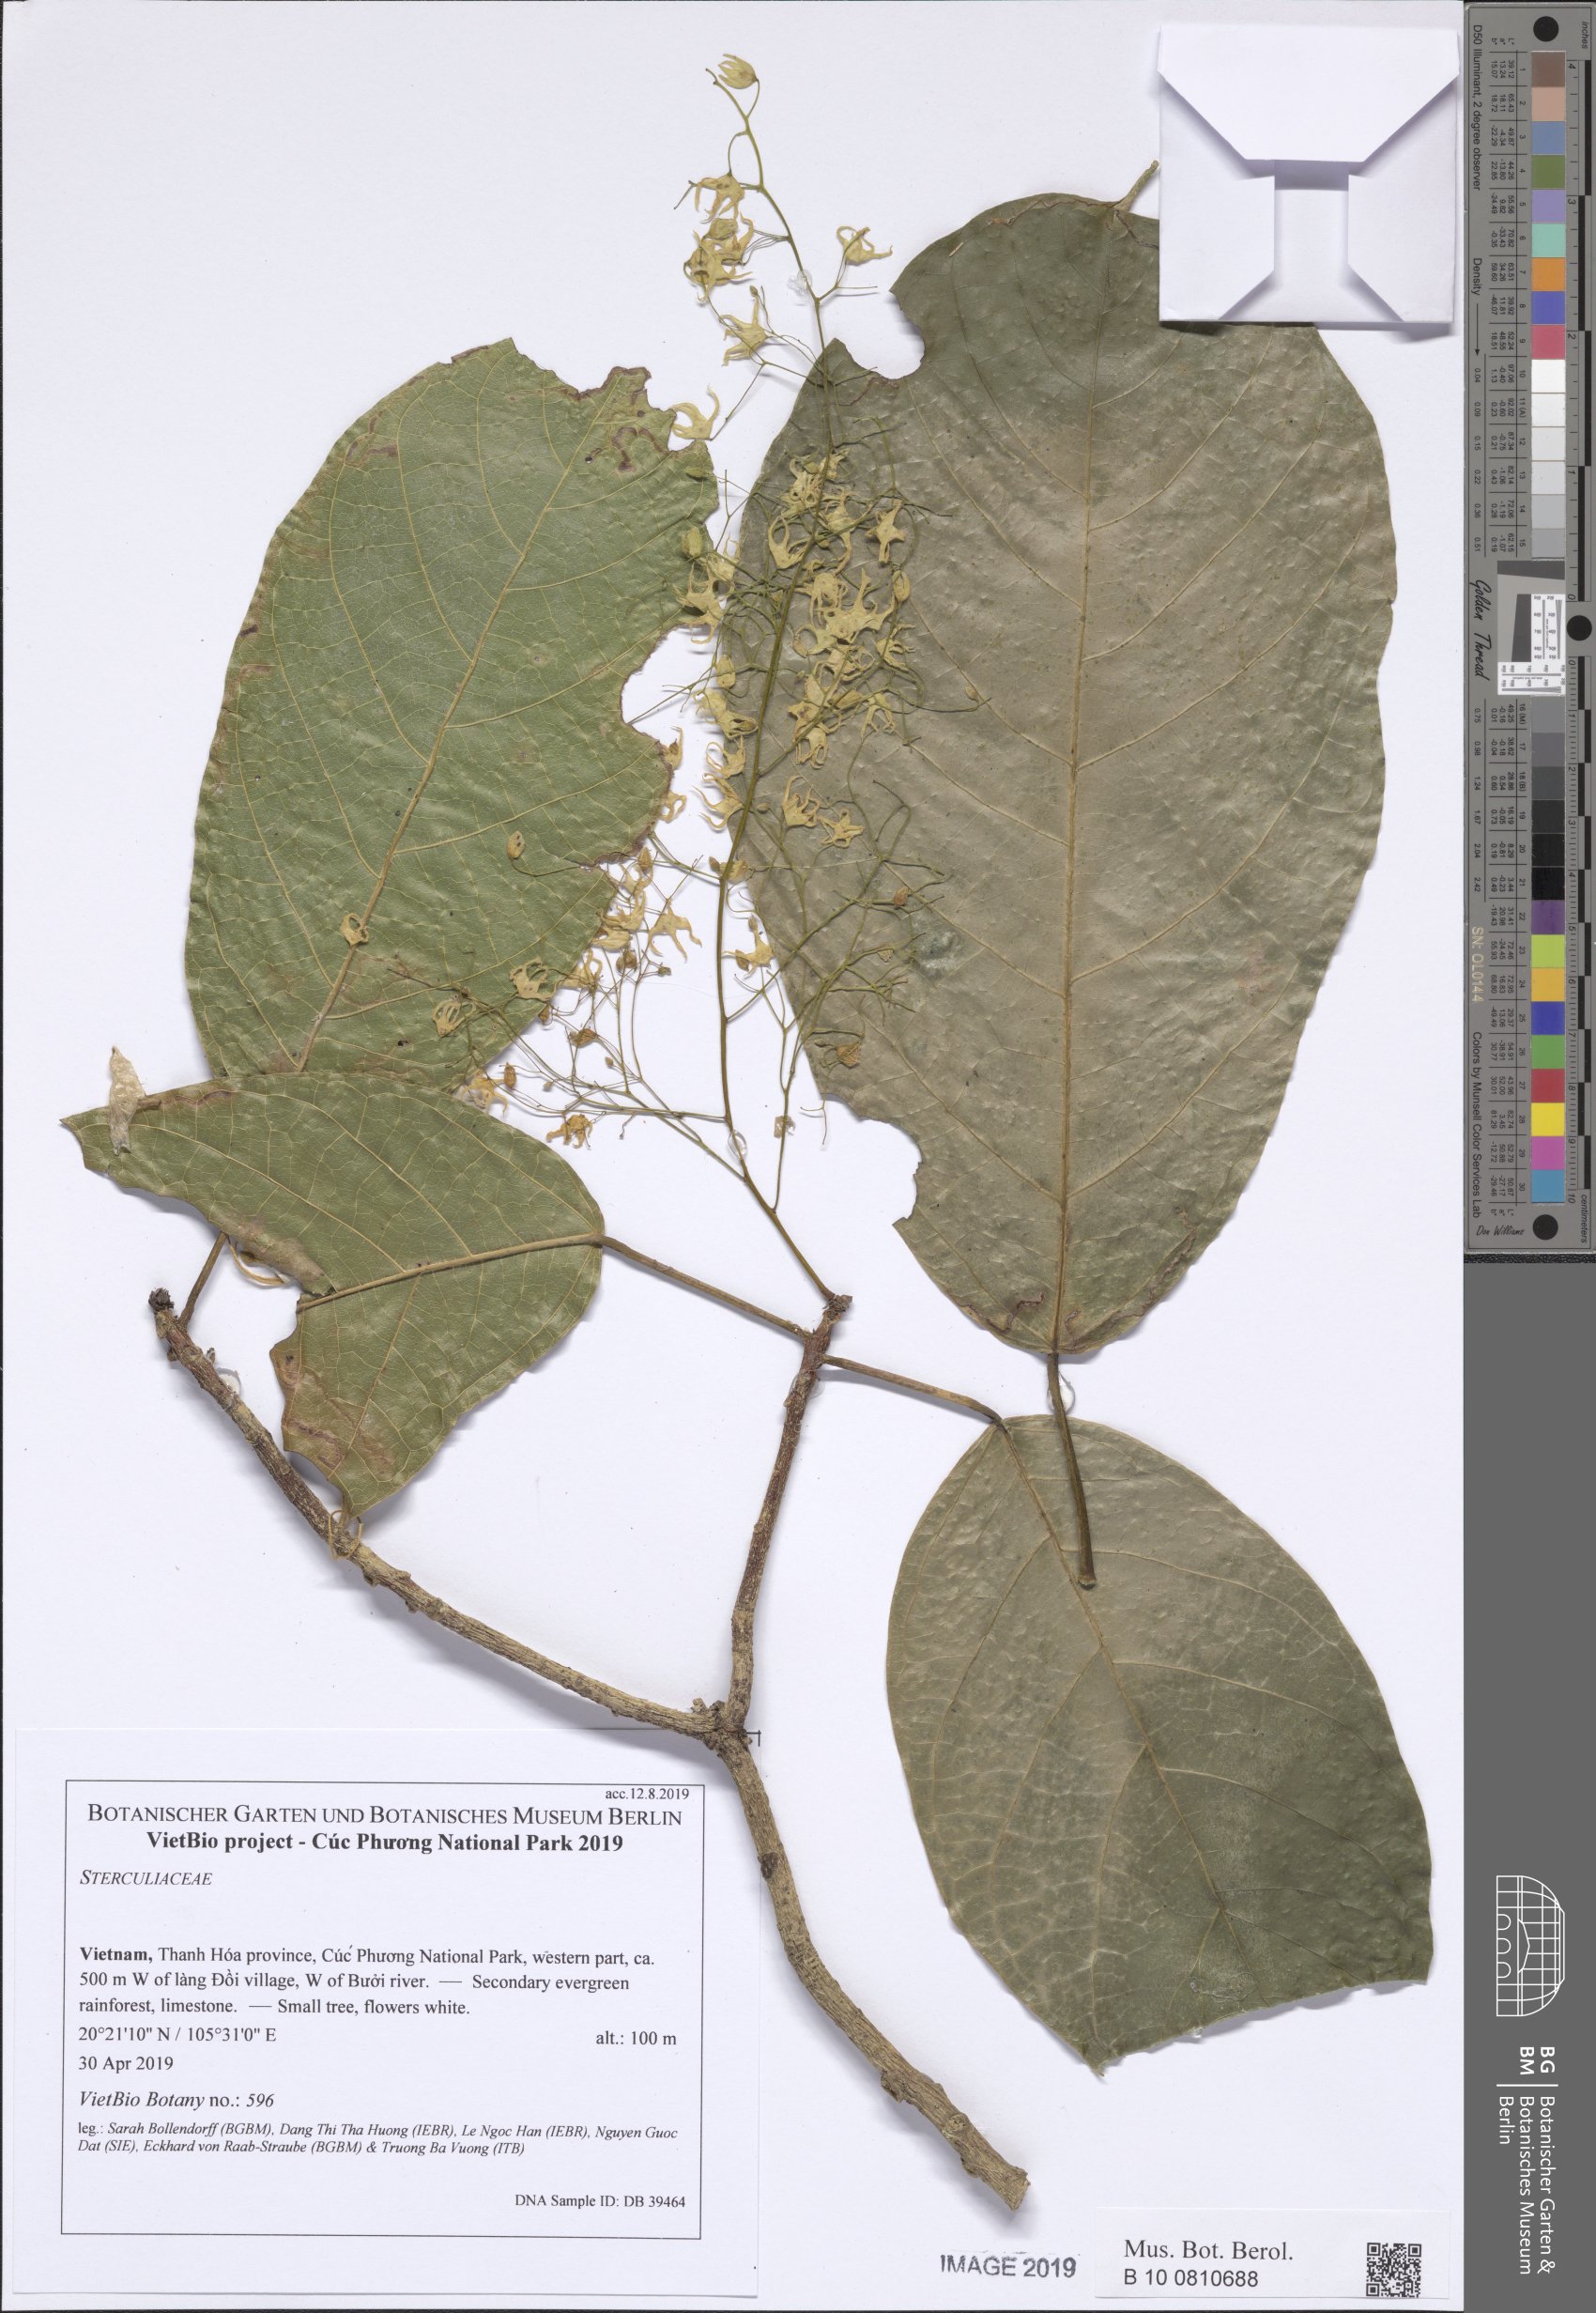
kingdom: Plantae
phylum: Tracheophyta
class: Magnoliopsida
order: Malvales
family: Malvaceae
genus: Sterculia
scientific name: Sterculia
